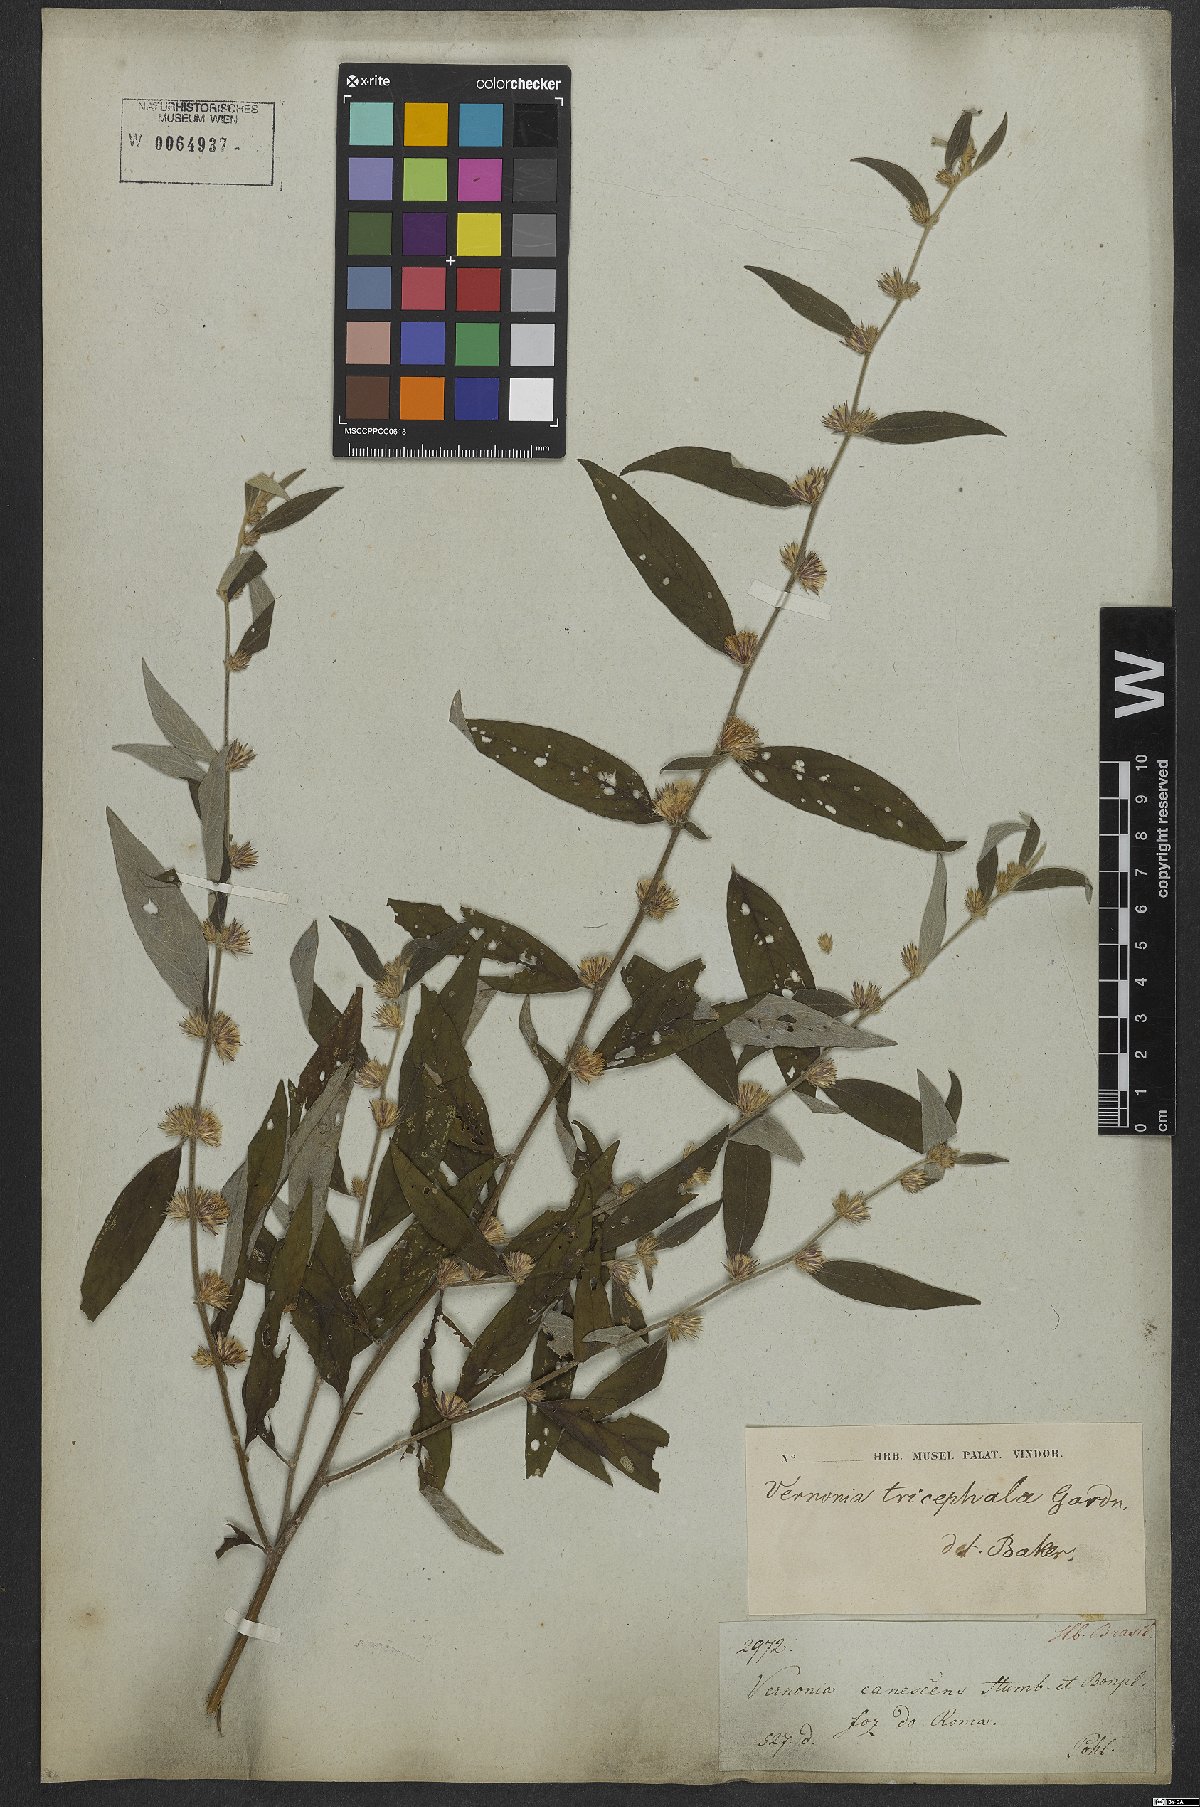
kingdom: Plantae
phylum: Tracheophyta
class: Magnoliopsida
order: Asterales
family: Asteraceae
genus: Lepidaploa
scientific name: Lepidaploa rufogrisea
